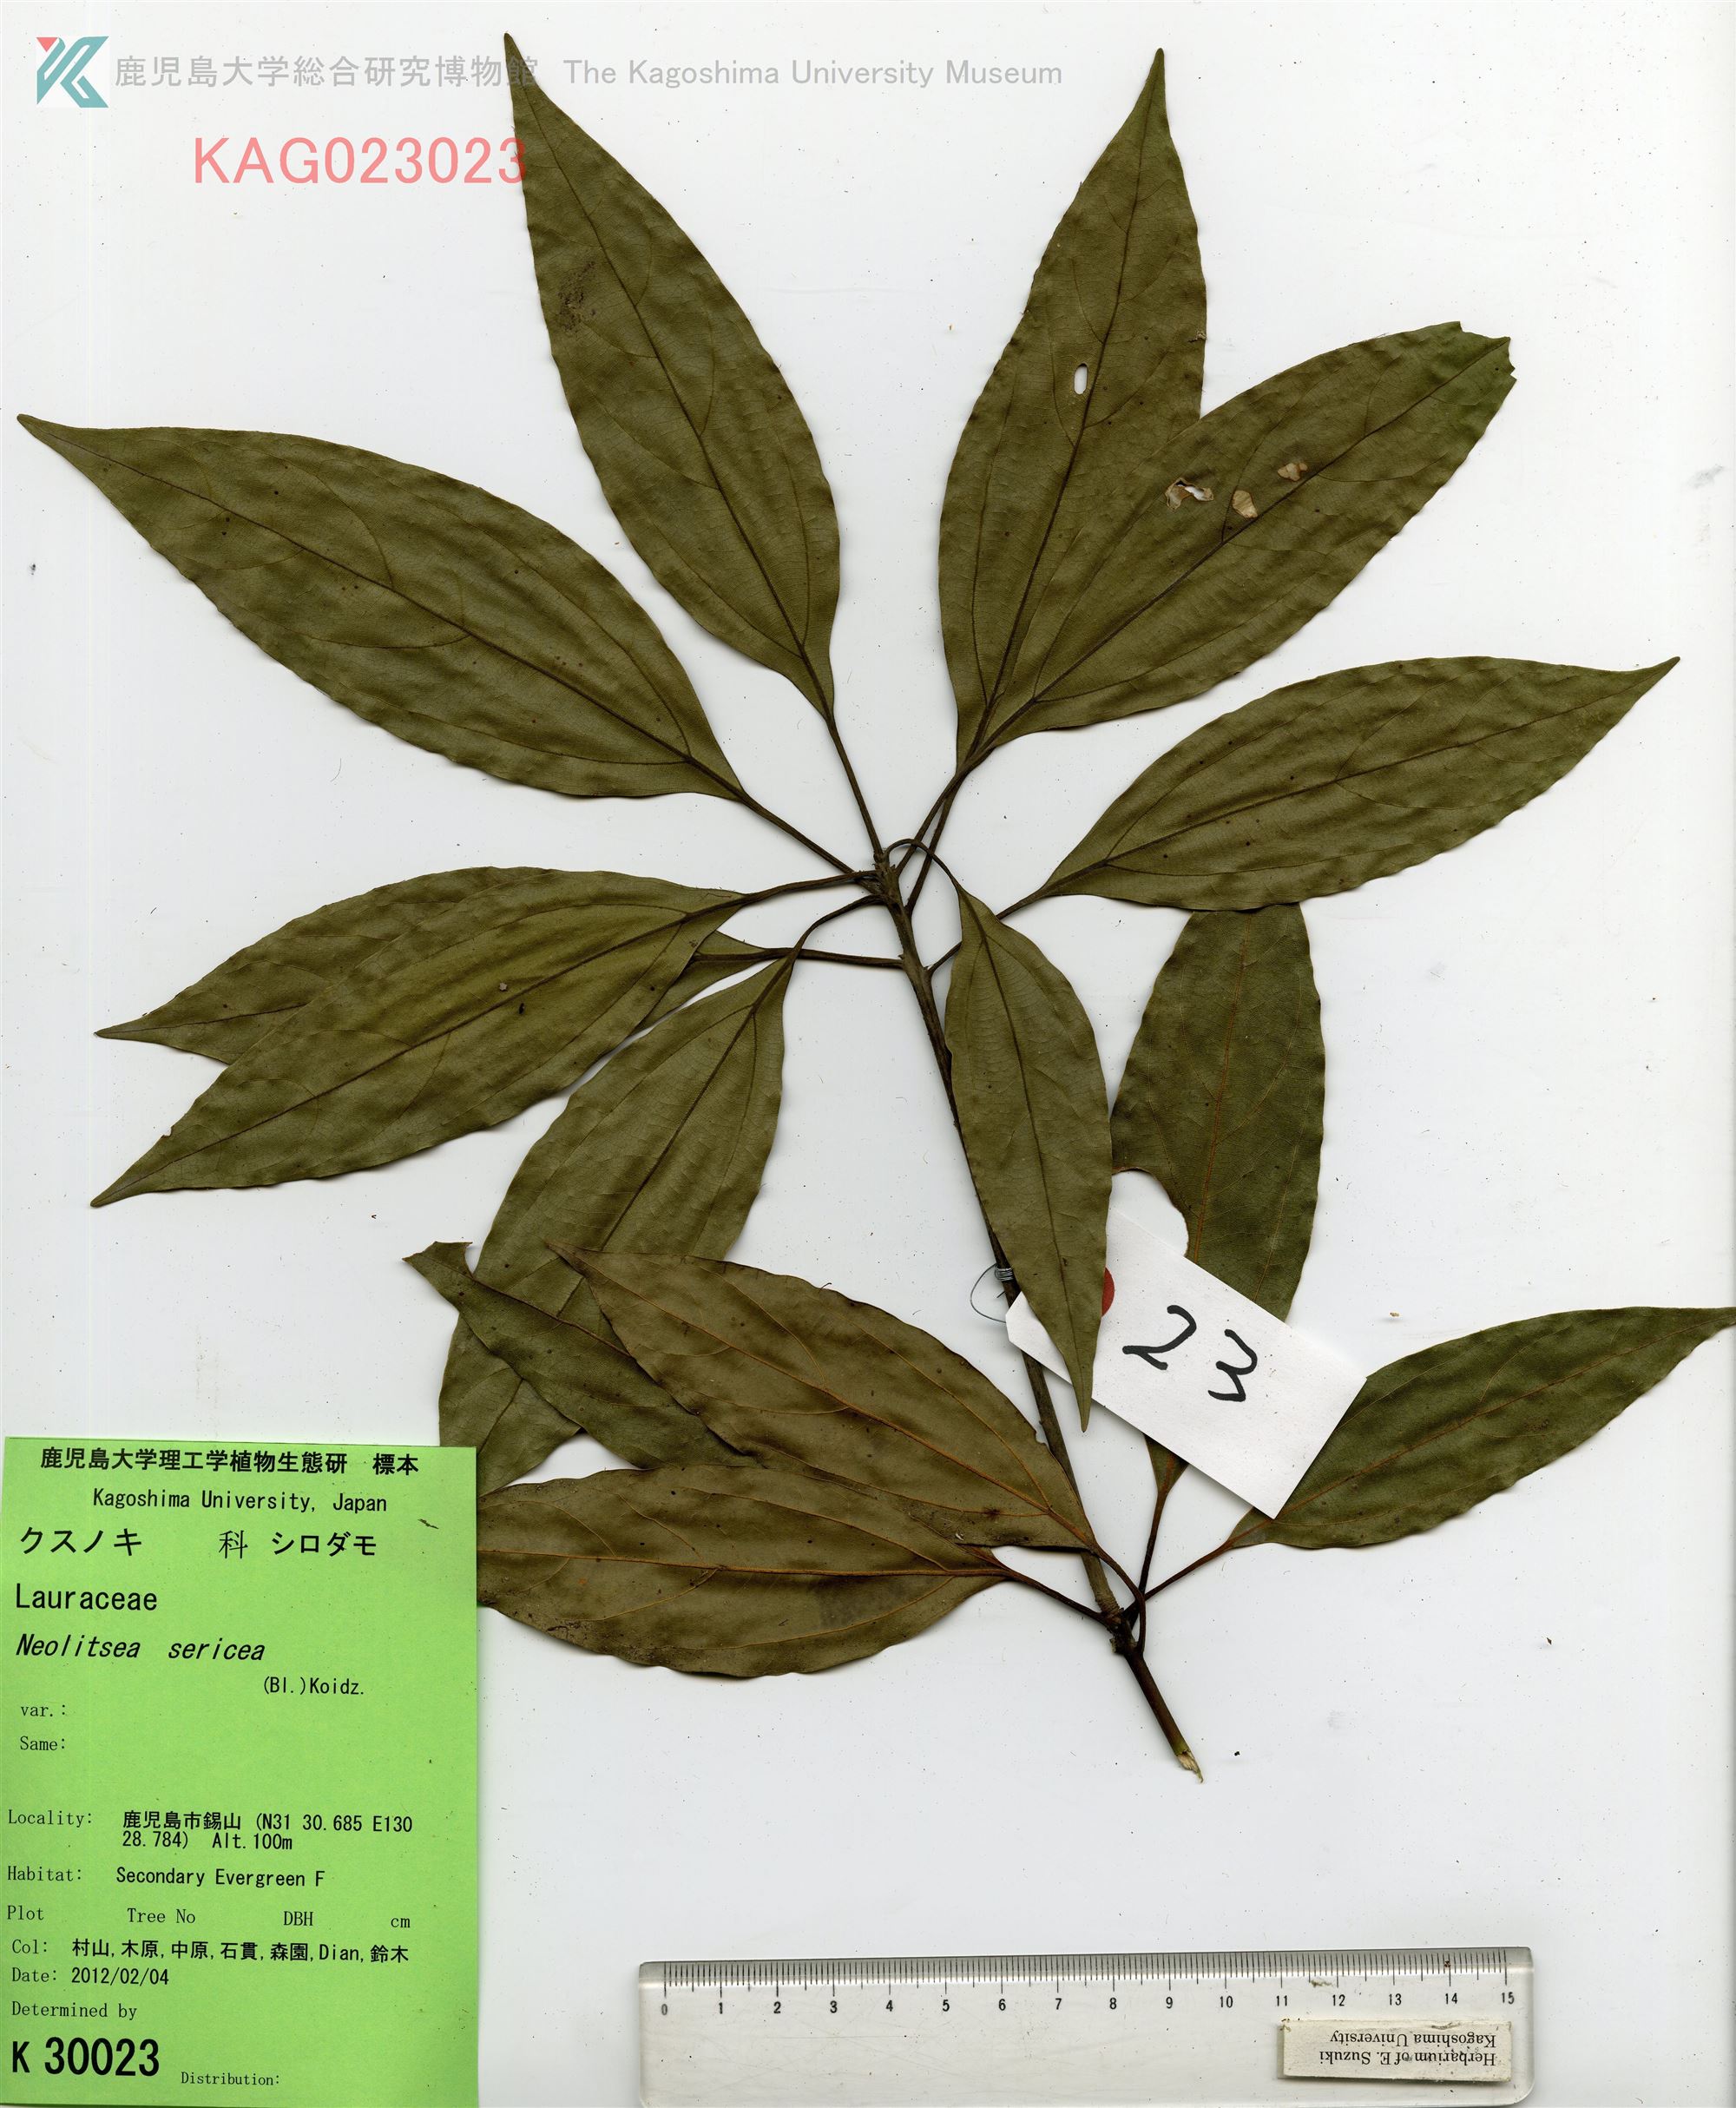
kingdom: Plantae
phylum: Tracheophyta
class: Magnoliopsida
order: Laurales
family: Lauraceae
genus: Neolitsea
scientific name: Neolitsea sericea
